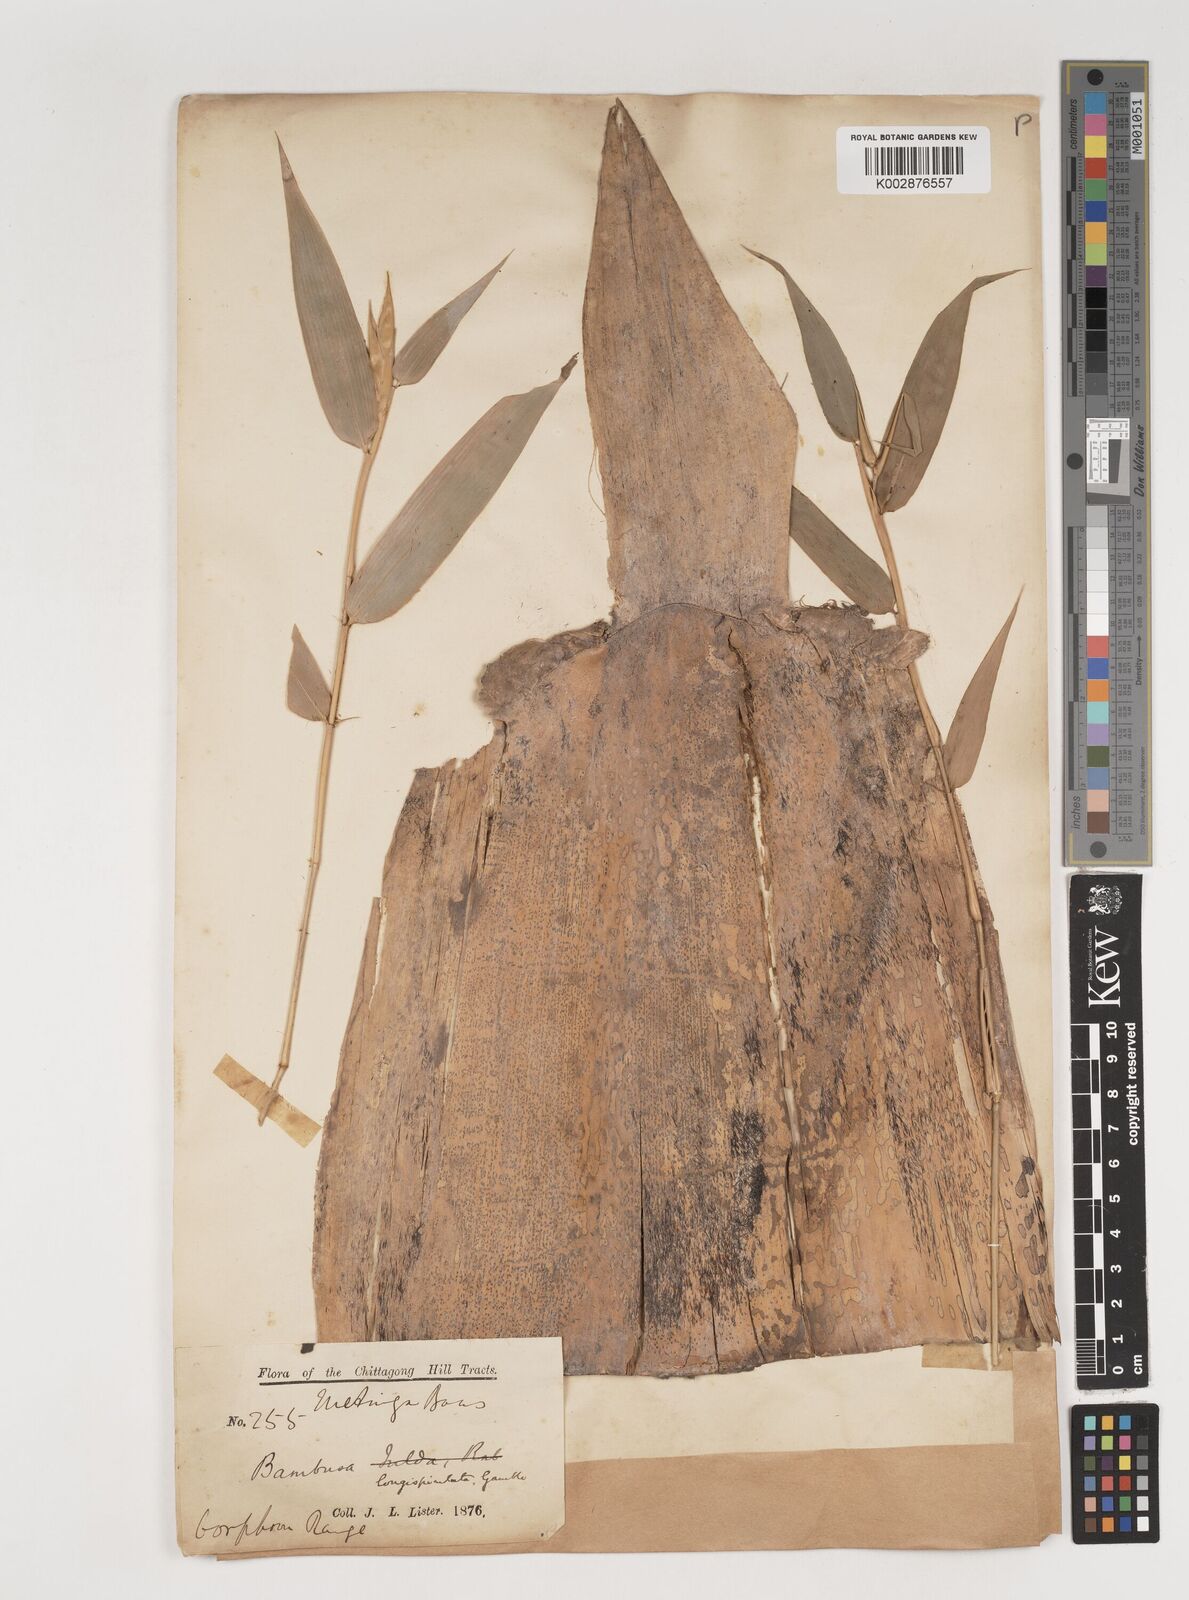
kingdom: Plantae
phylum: Tracheophyta
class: Liliopsida
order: Poales
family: Poaceae
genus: Bambusa
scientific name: Bambusa longispiculata
